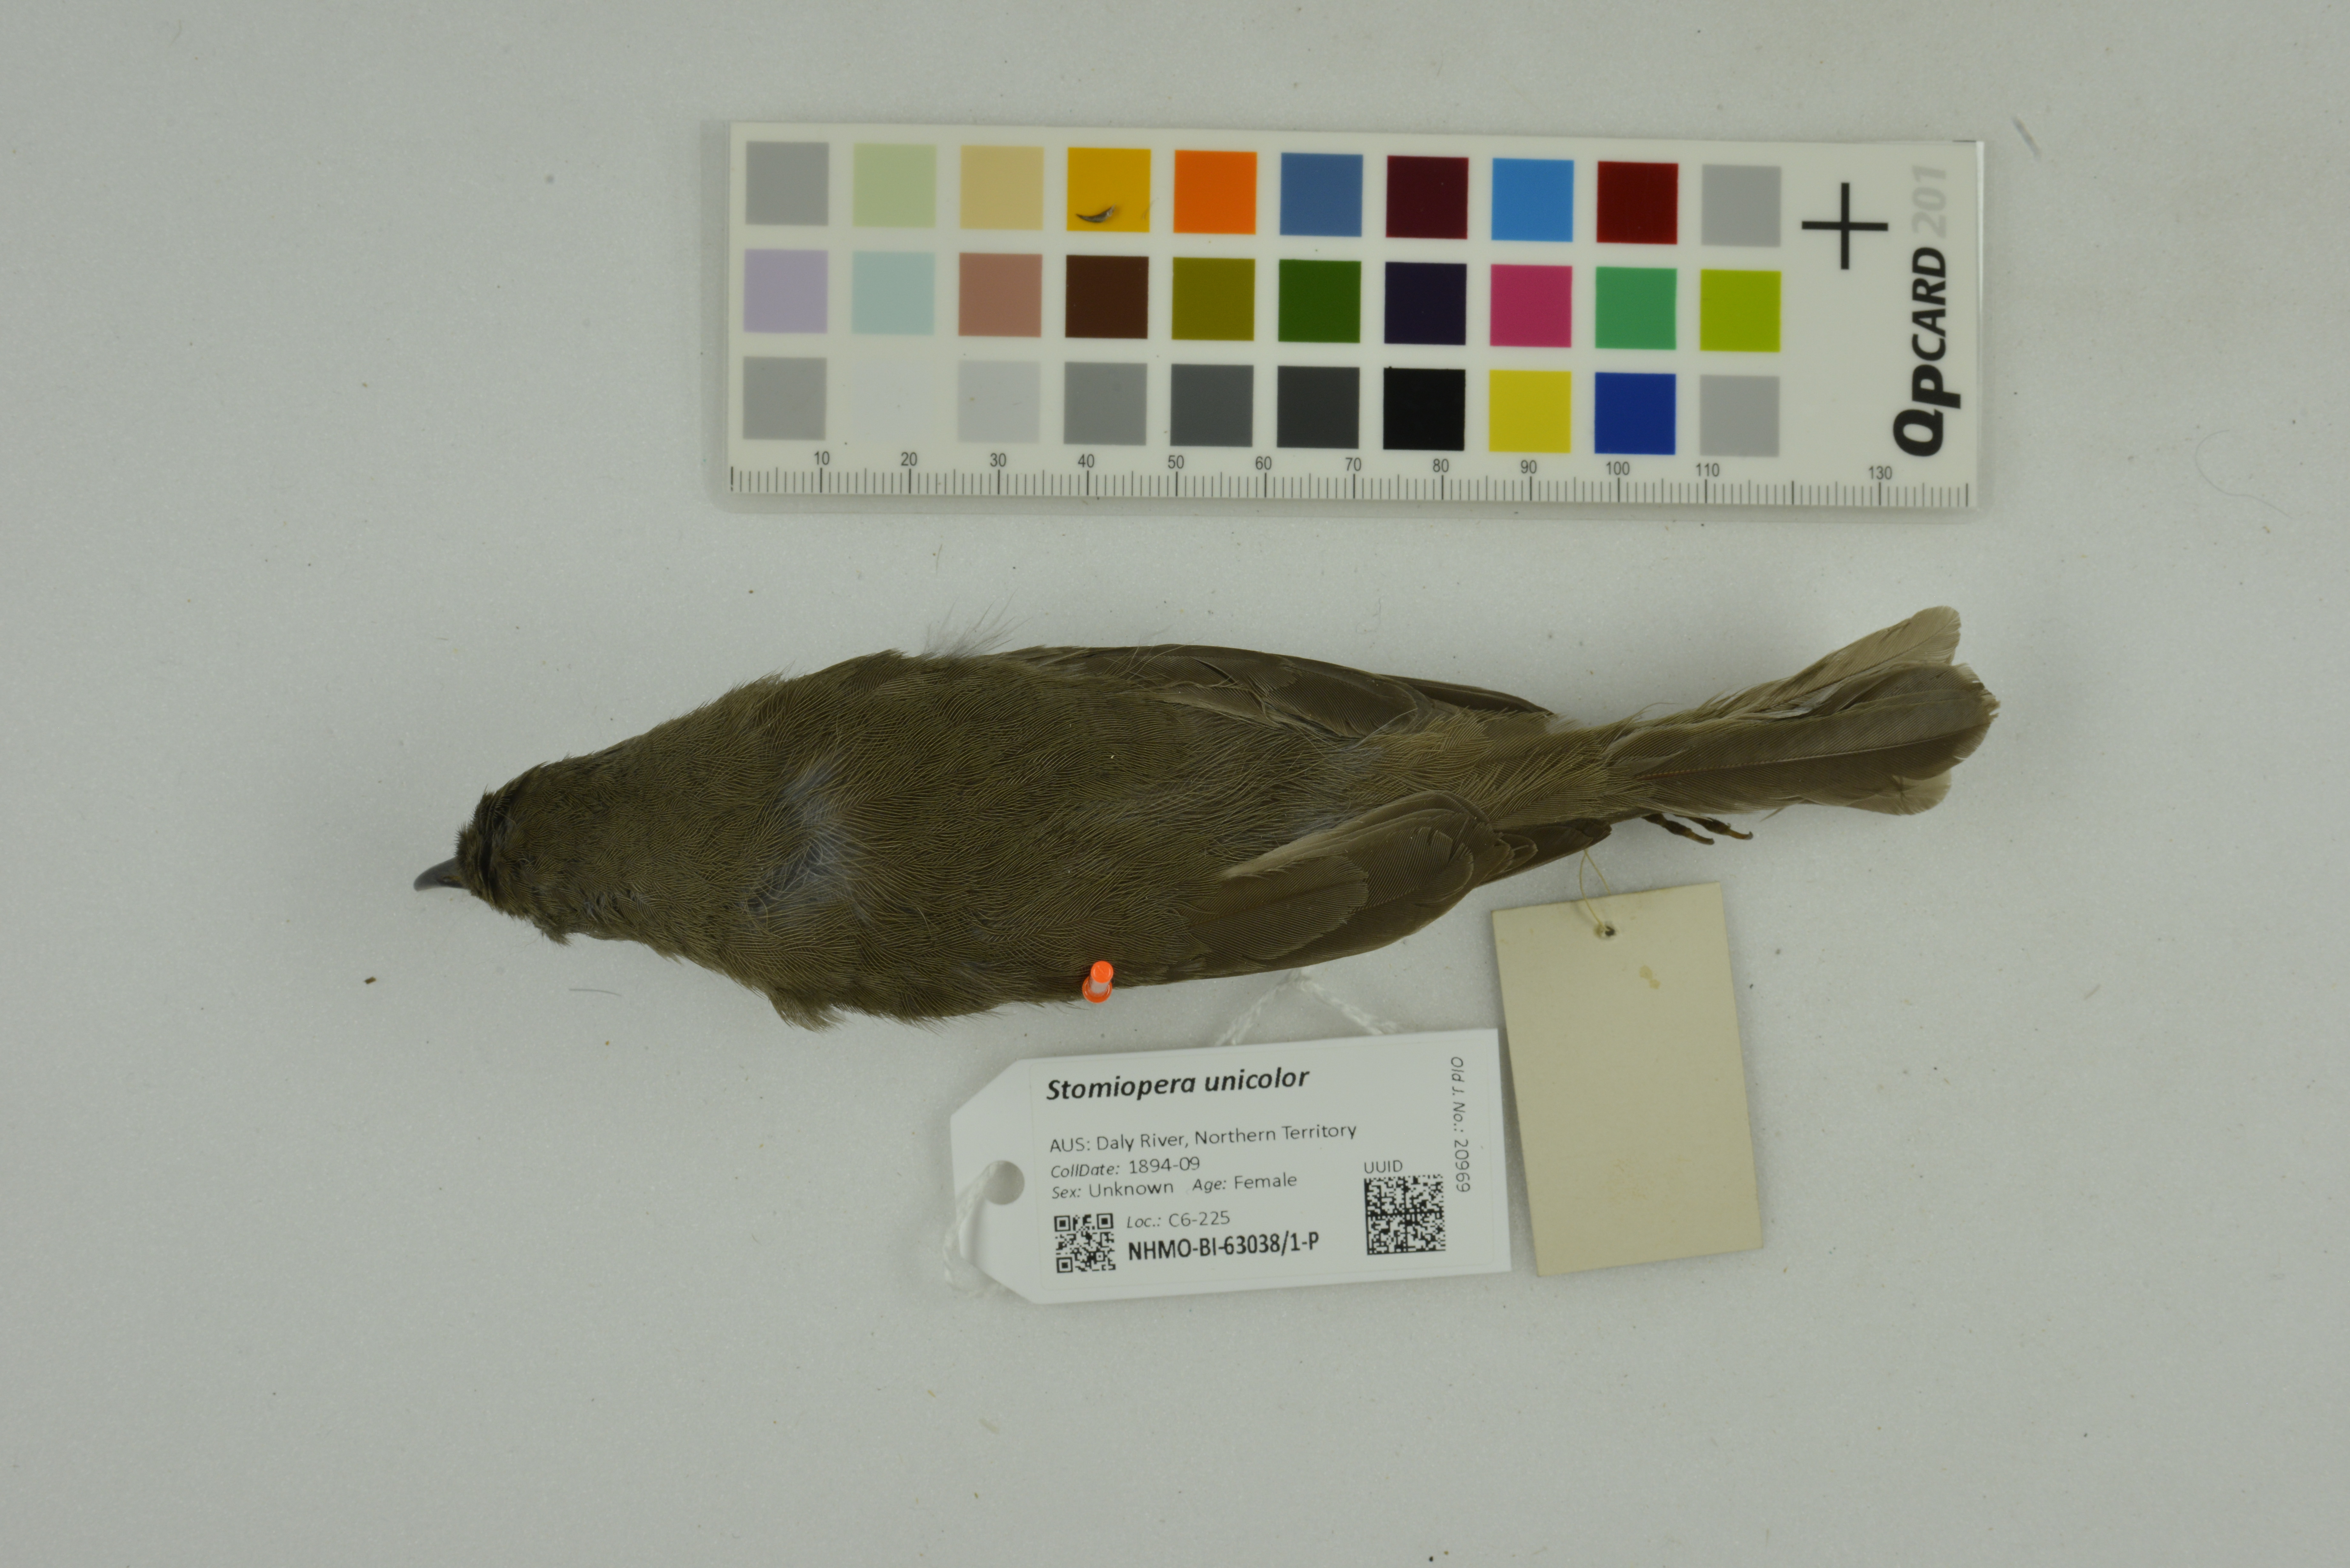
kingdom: Animalia
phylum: Chordata
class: Aves
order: Passeriformes
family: Meliphagidae
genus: Stomiopera
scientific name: Stomiopera unicolor
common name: White-gaped honeyeater
